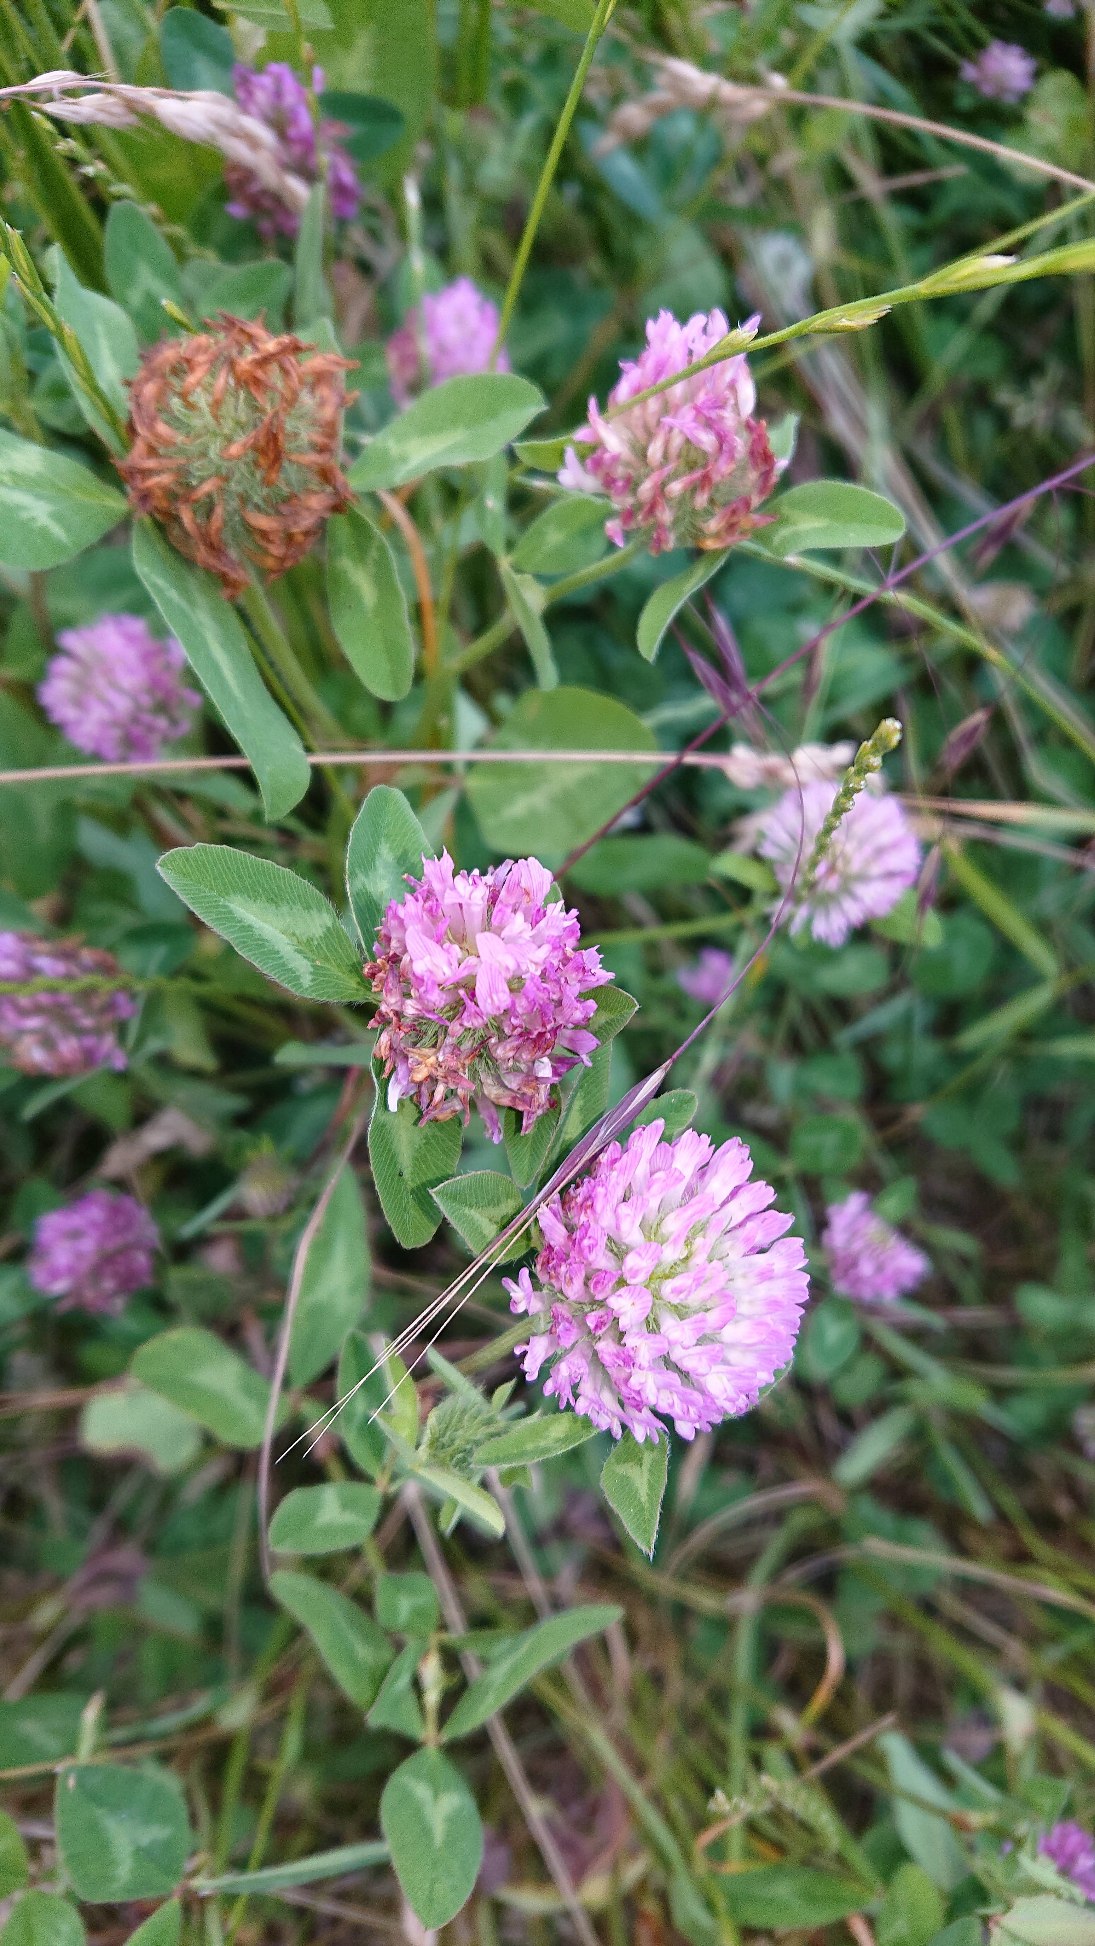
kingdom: Plantae
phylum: Tracheophyta
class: Magnoliopsida
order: Fabales
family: Fabaceae
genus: Trifolium
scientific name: Trifolium pratense
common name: Rød-kløver
